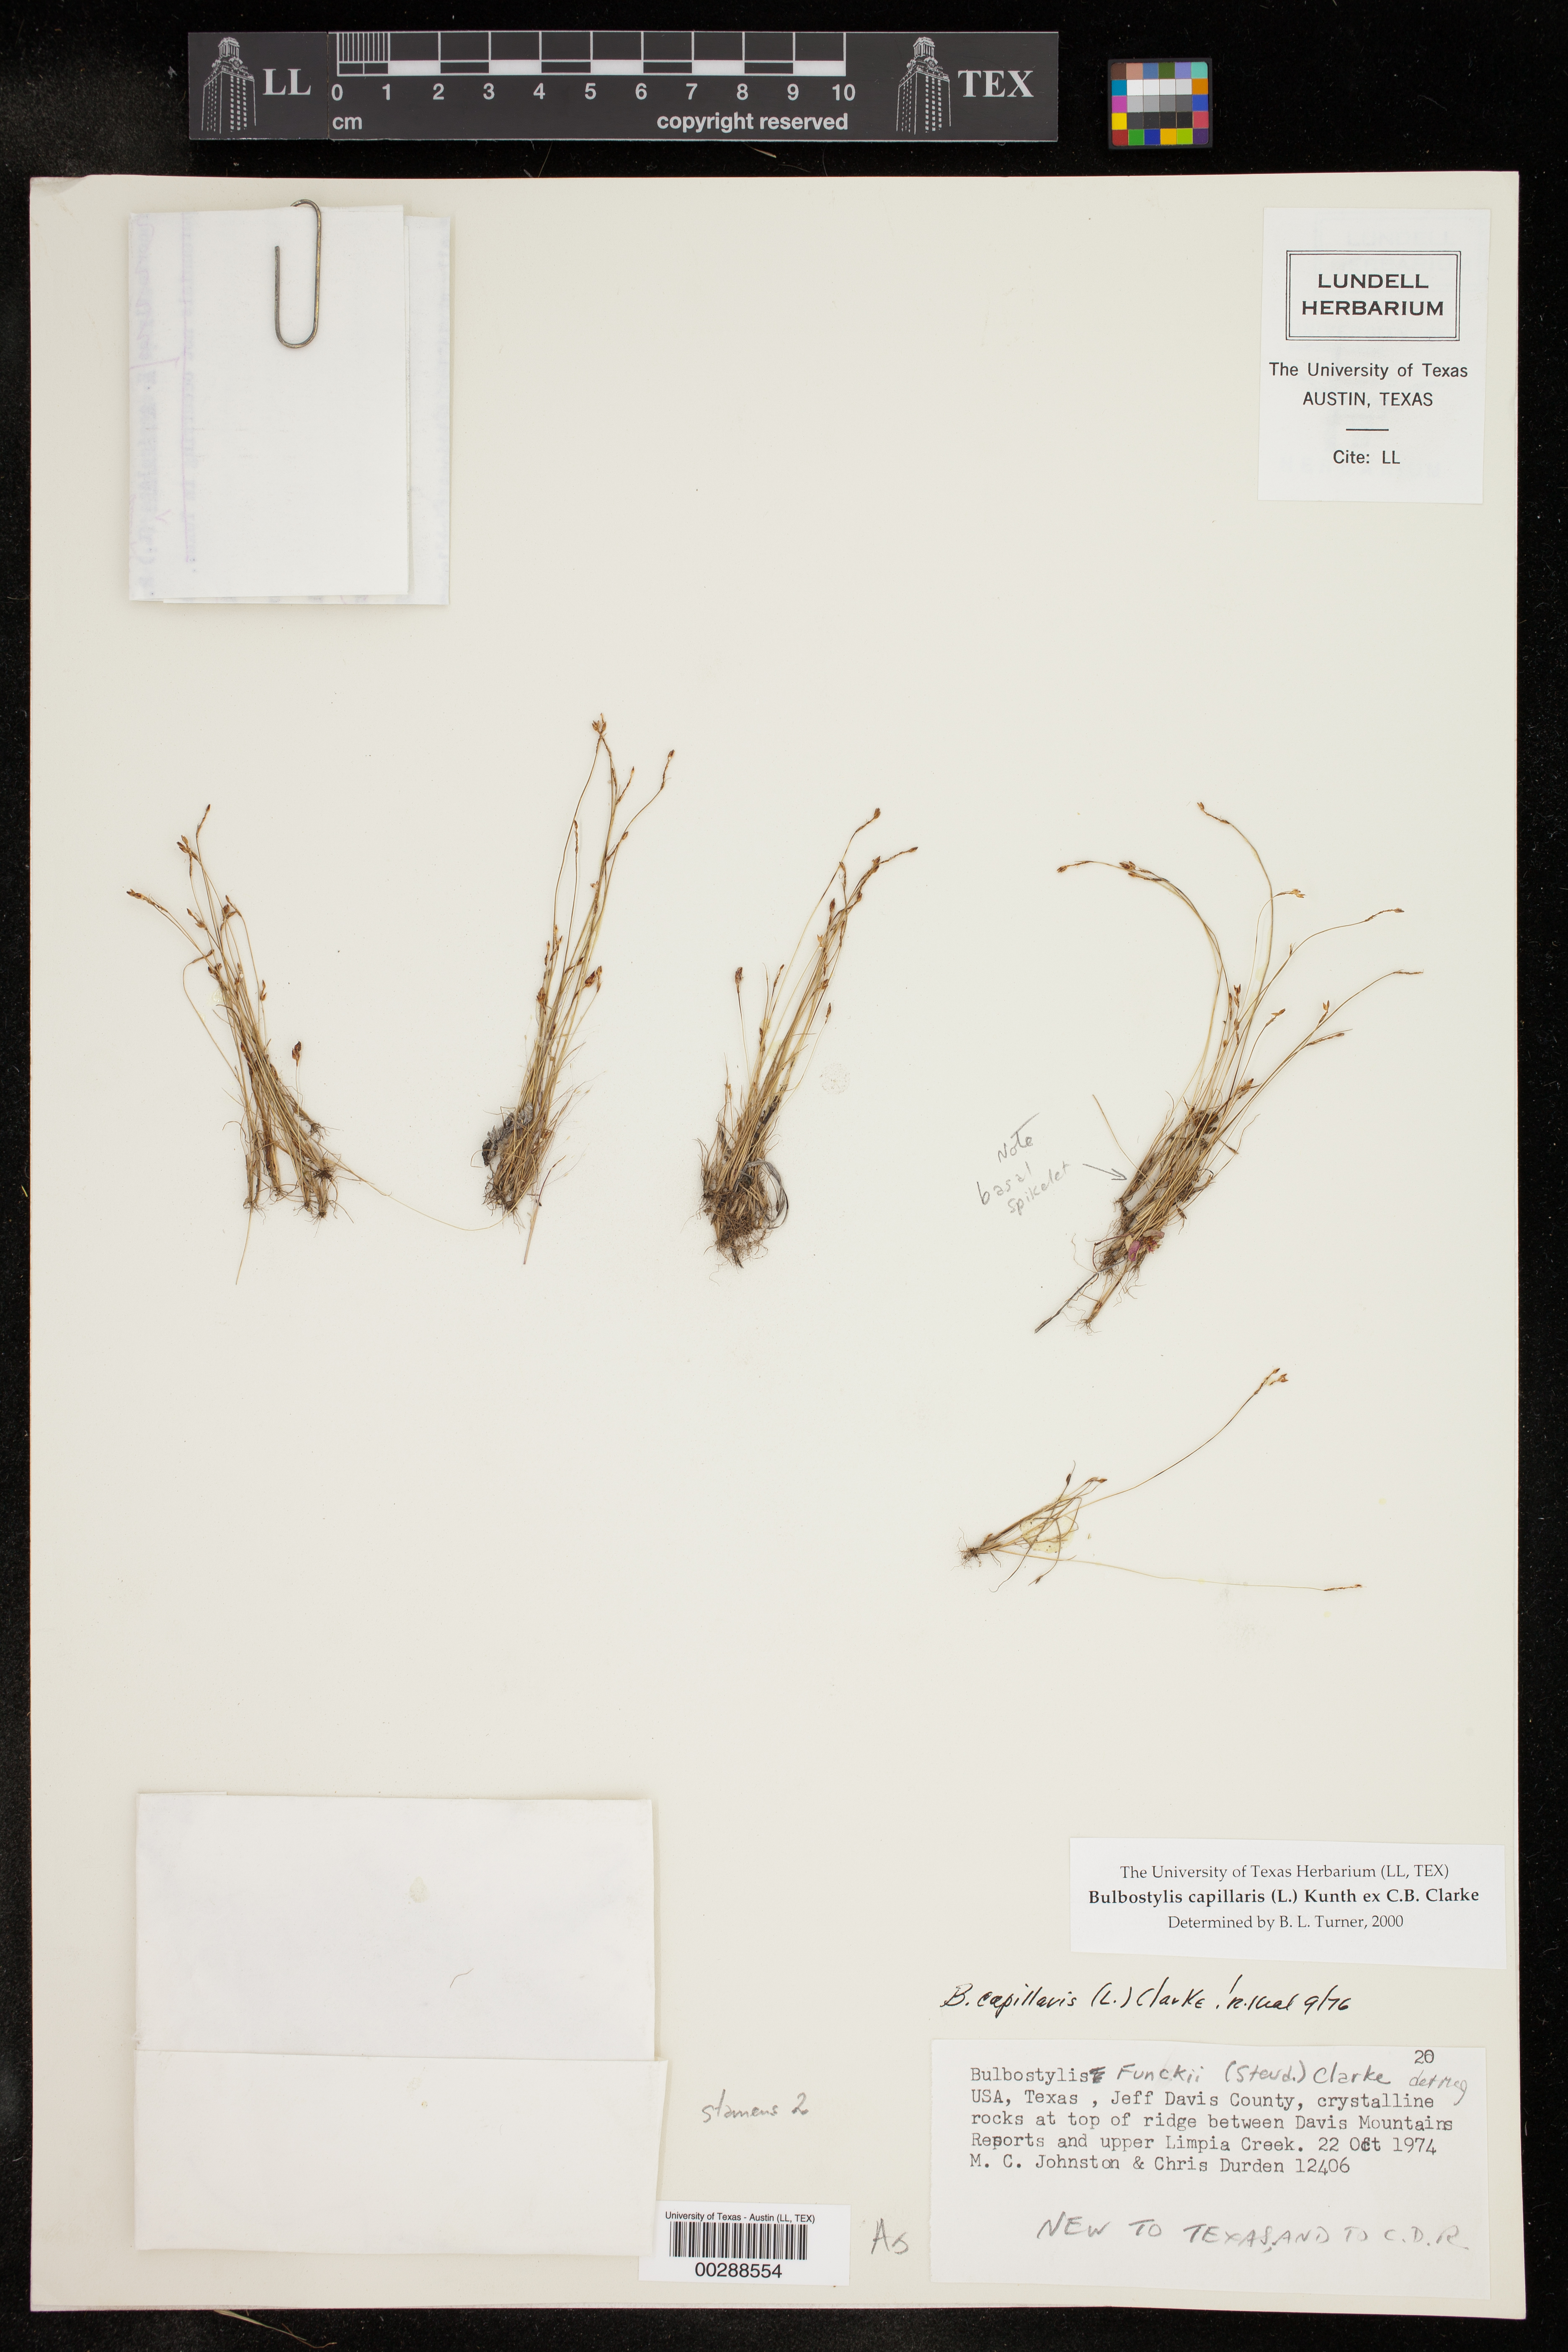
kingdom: Plantae
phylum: Tracheophyta
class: Liliopsida
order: Poales
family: Cyperaceae
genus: Bulbostylis
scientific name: Bulbostylis capillaris
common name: Densetuft hairsedge
